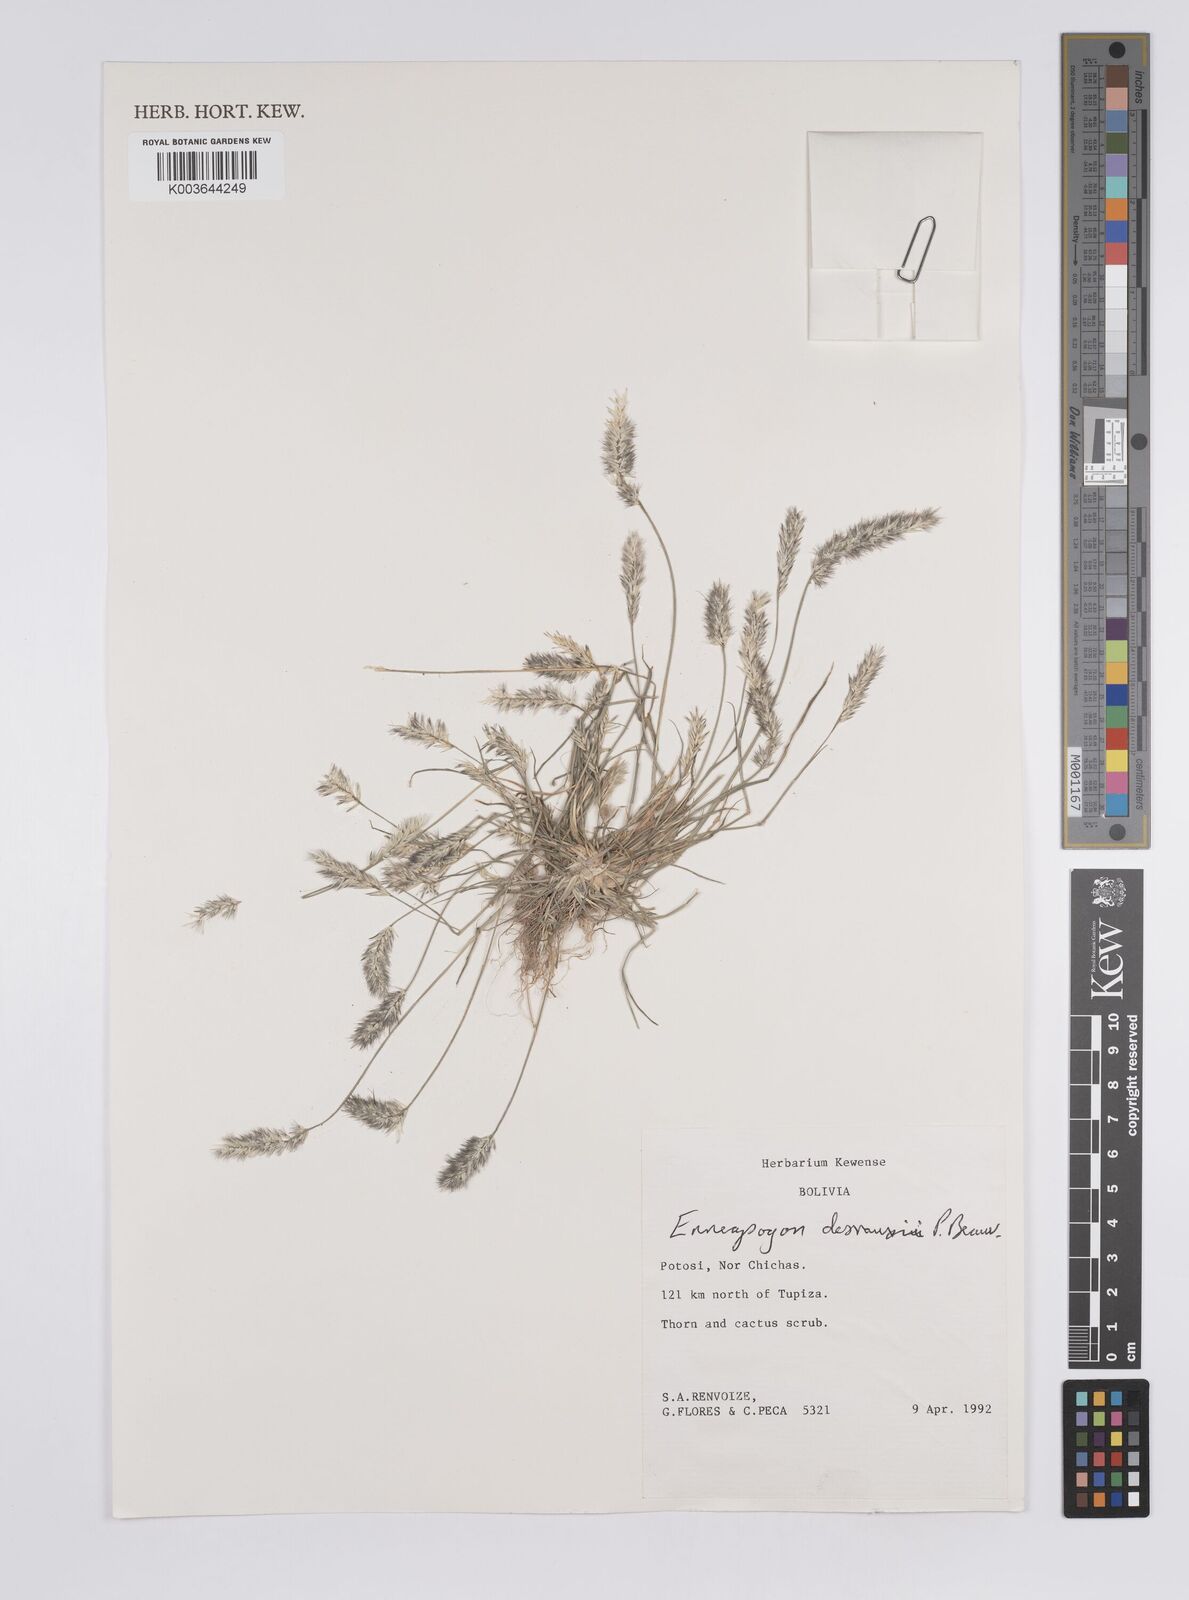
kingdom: Plantae
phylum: Tracheophyta
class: Liliopsida
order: Poales
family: Poaceae
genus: Enneapogon
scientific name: Enneapogon desvauxii
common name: Feather pappus grass
